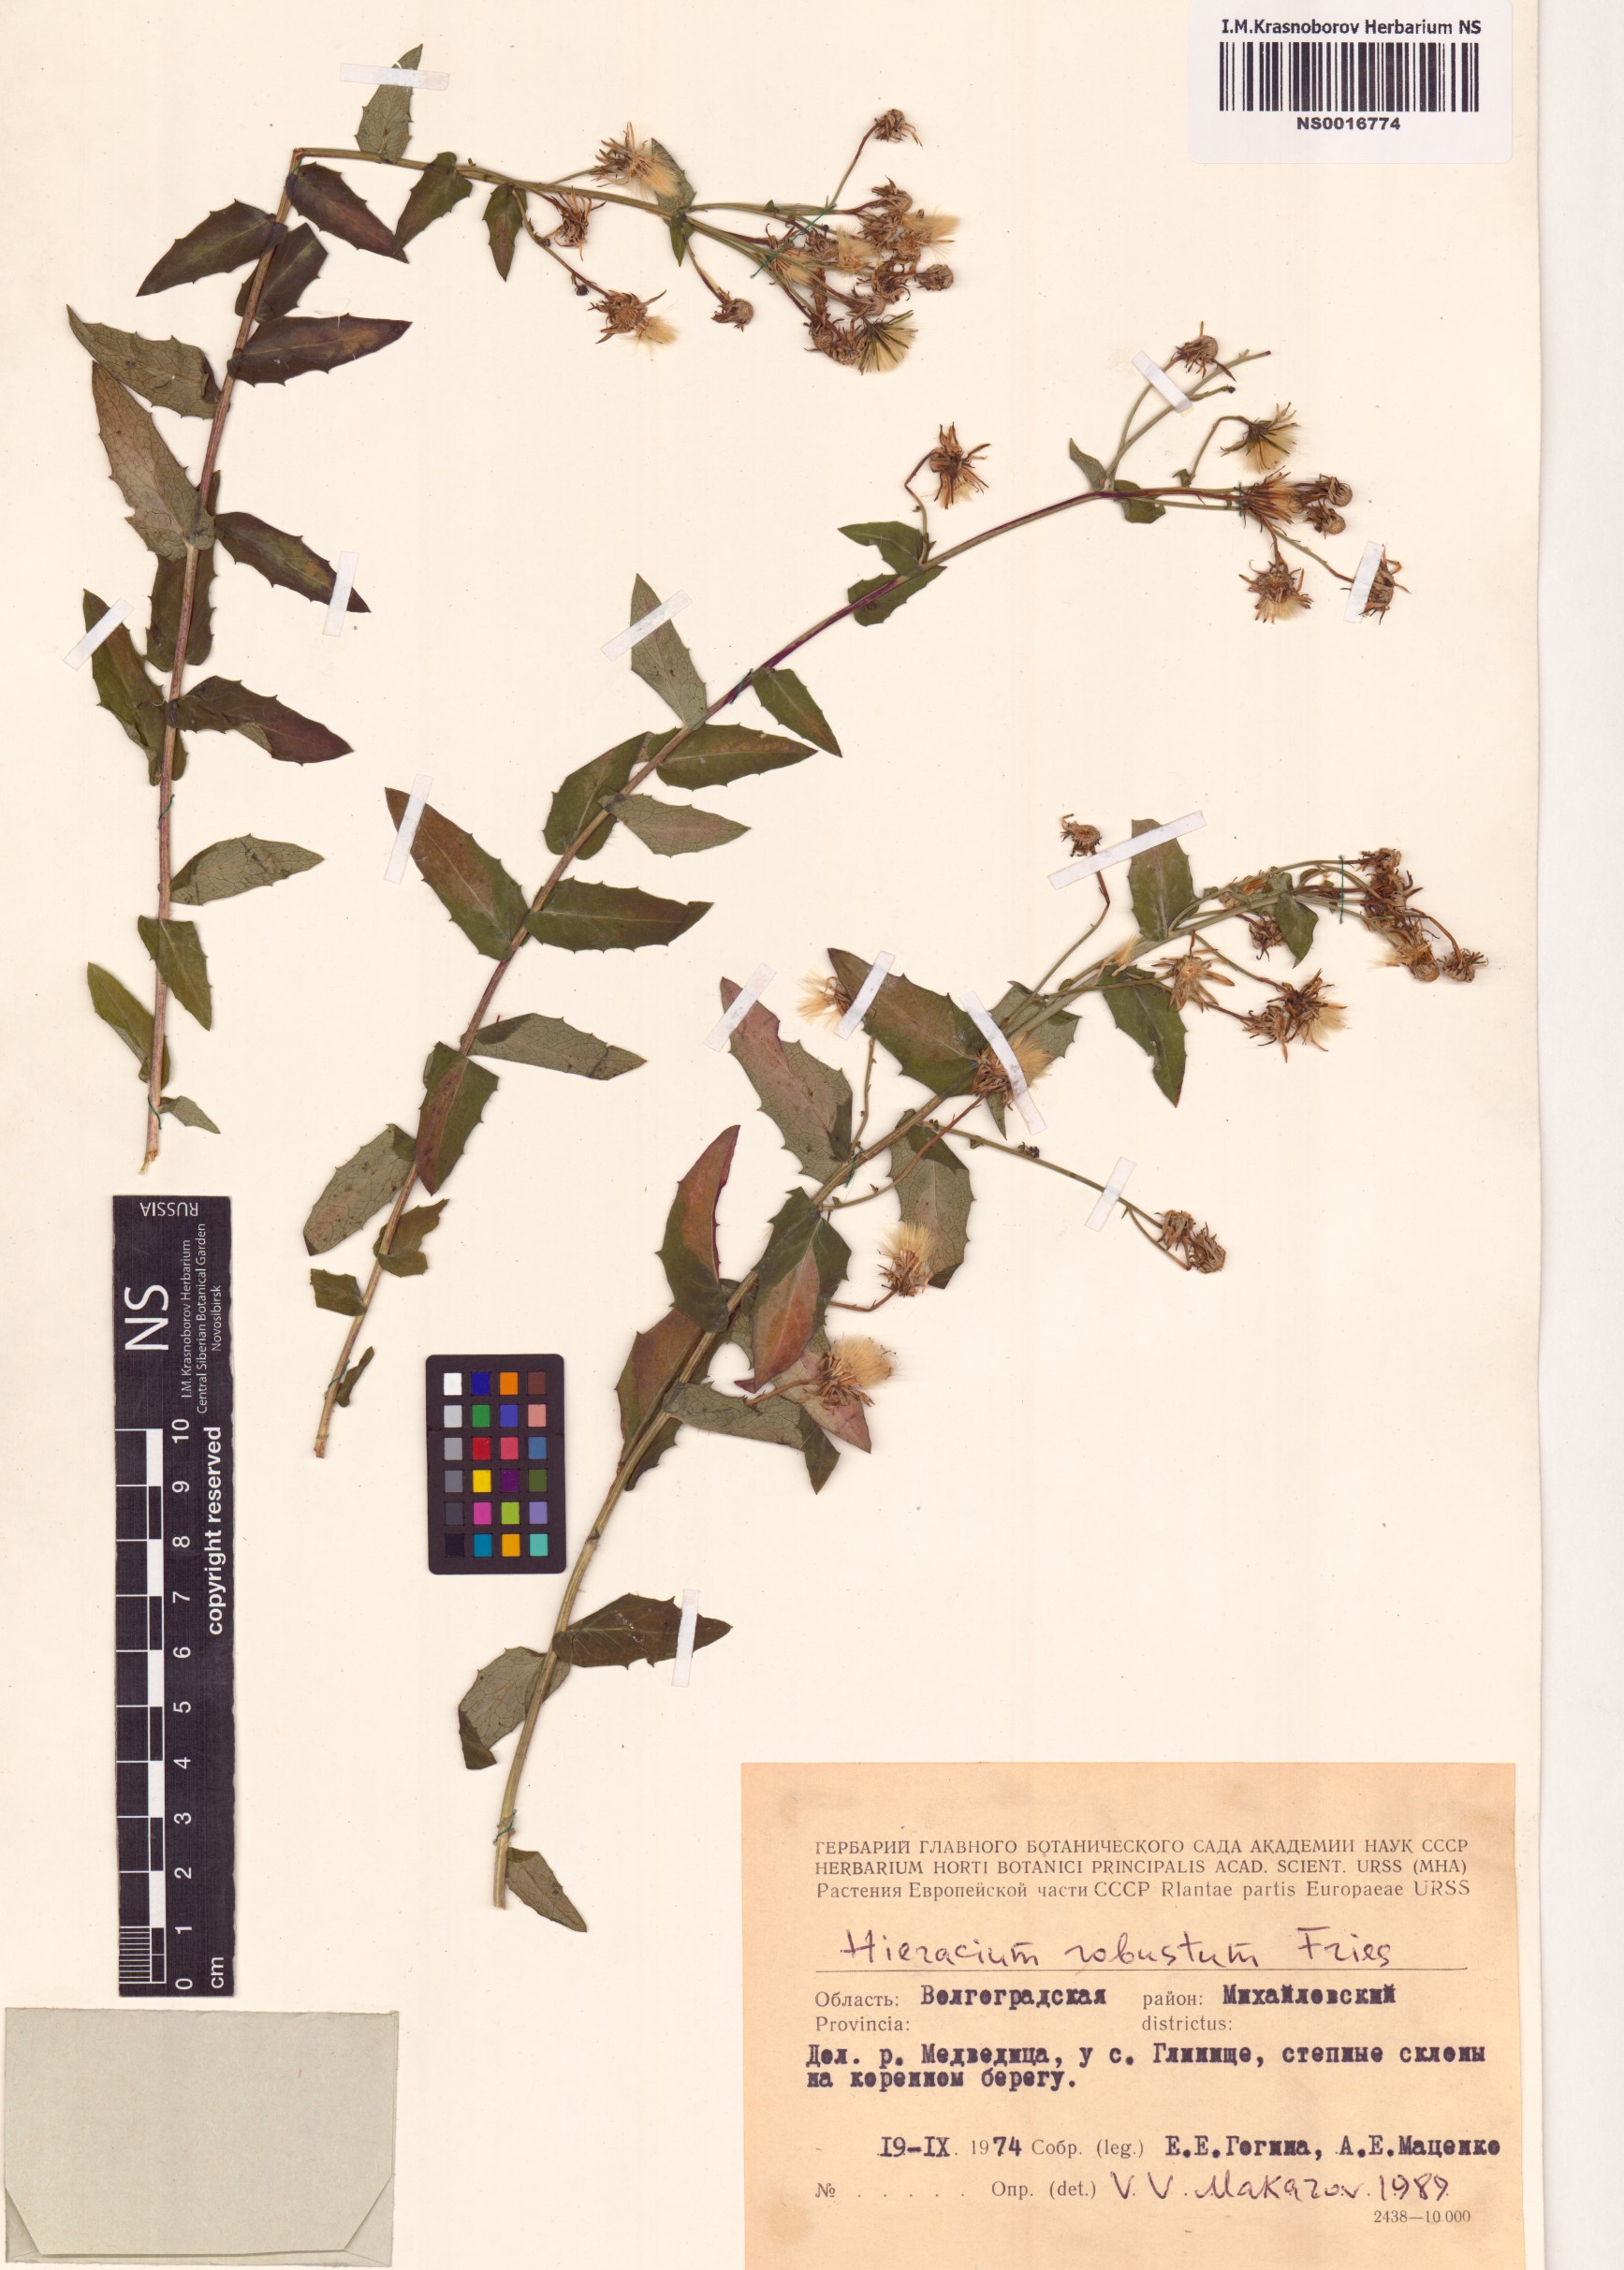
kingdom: Plantae
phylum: Tracheophyta
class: Magnoliopsida
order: Asterales
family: Asteraceae
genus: Hieracium
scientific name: Hieracium robustum
